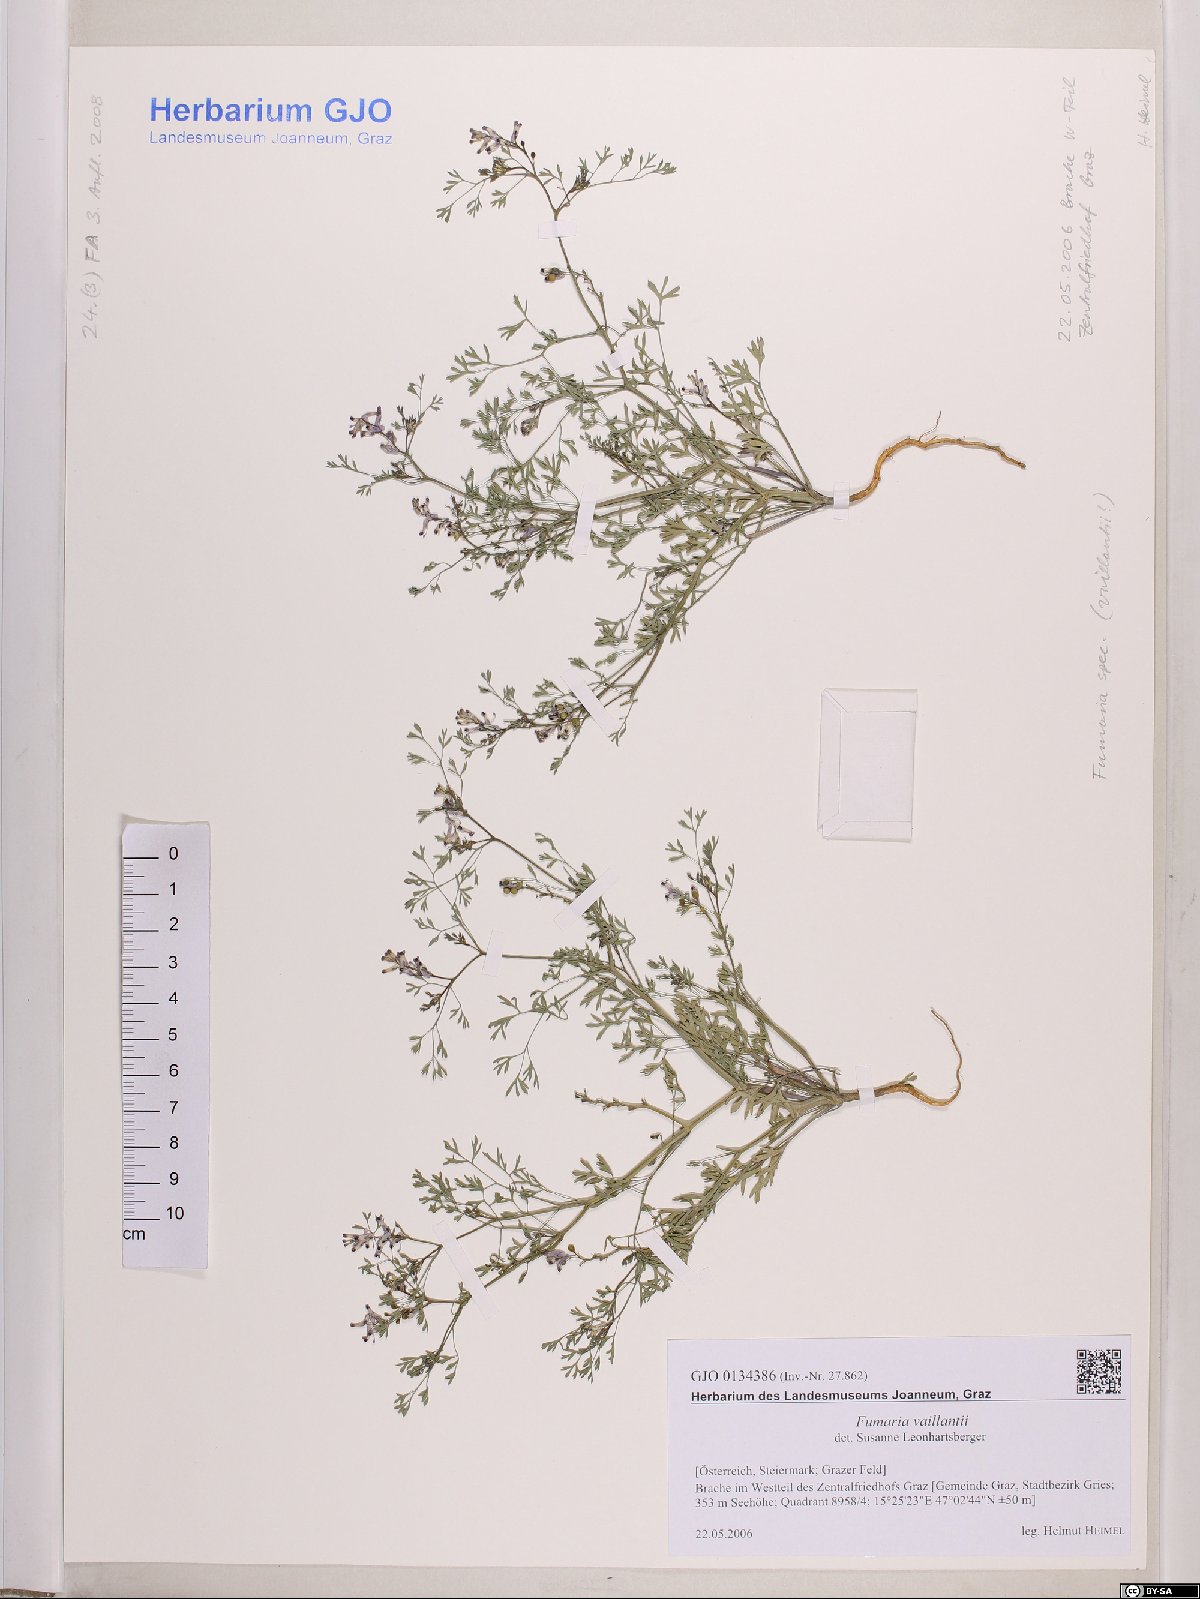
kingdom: Plantae
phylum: Tracheophyta
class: Magnoliopsida
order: Ranunculales
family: Papaveraceae
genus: Fumaria
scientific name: Fumaria vaillantii
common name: Few-flowered fumitory
